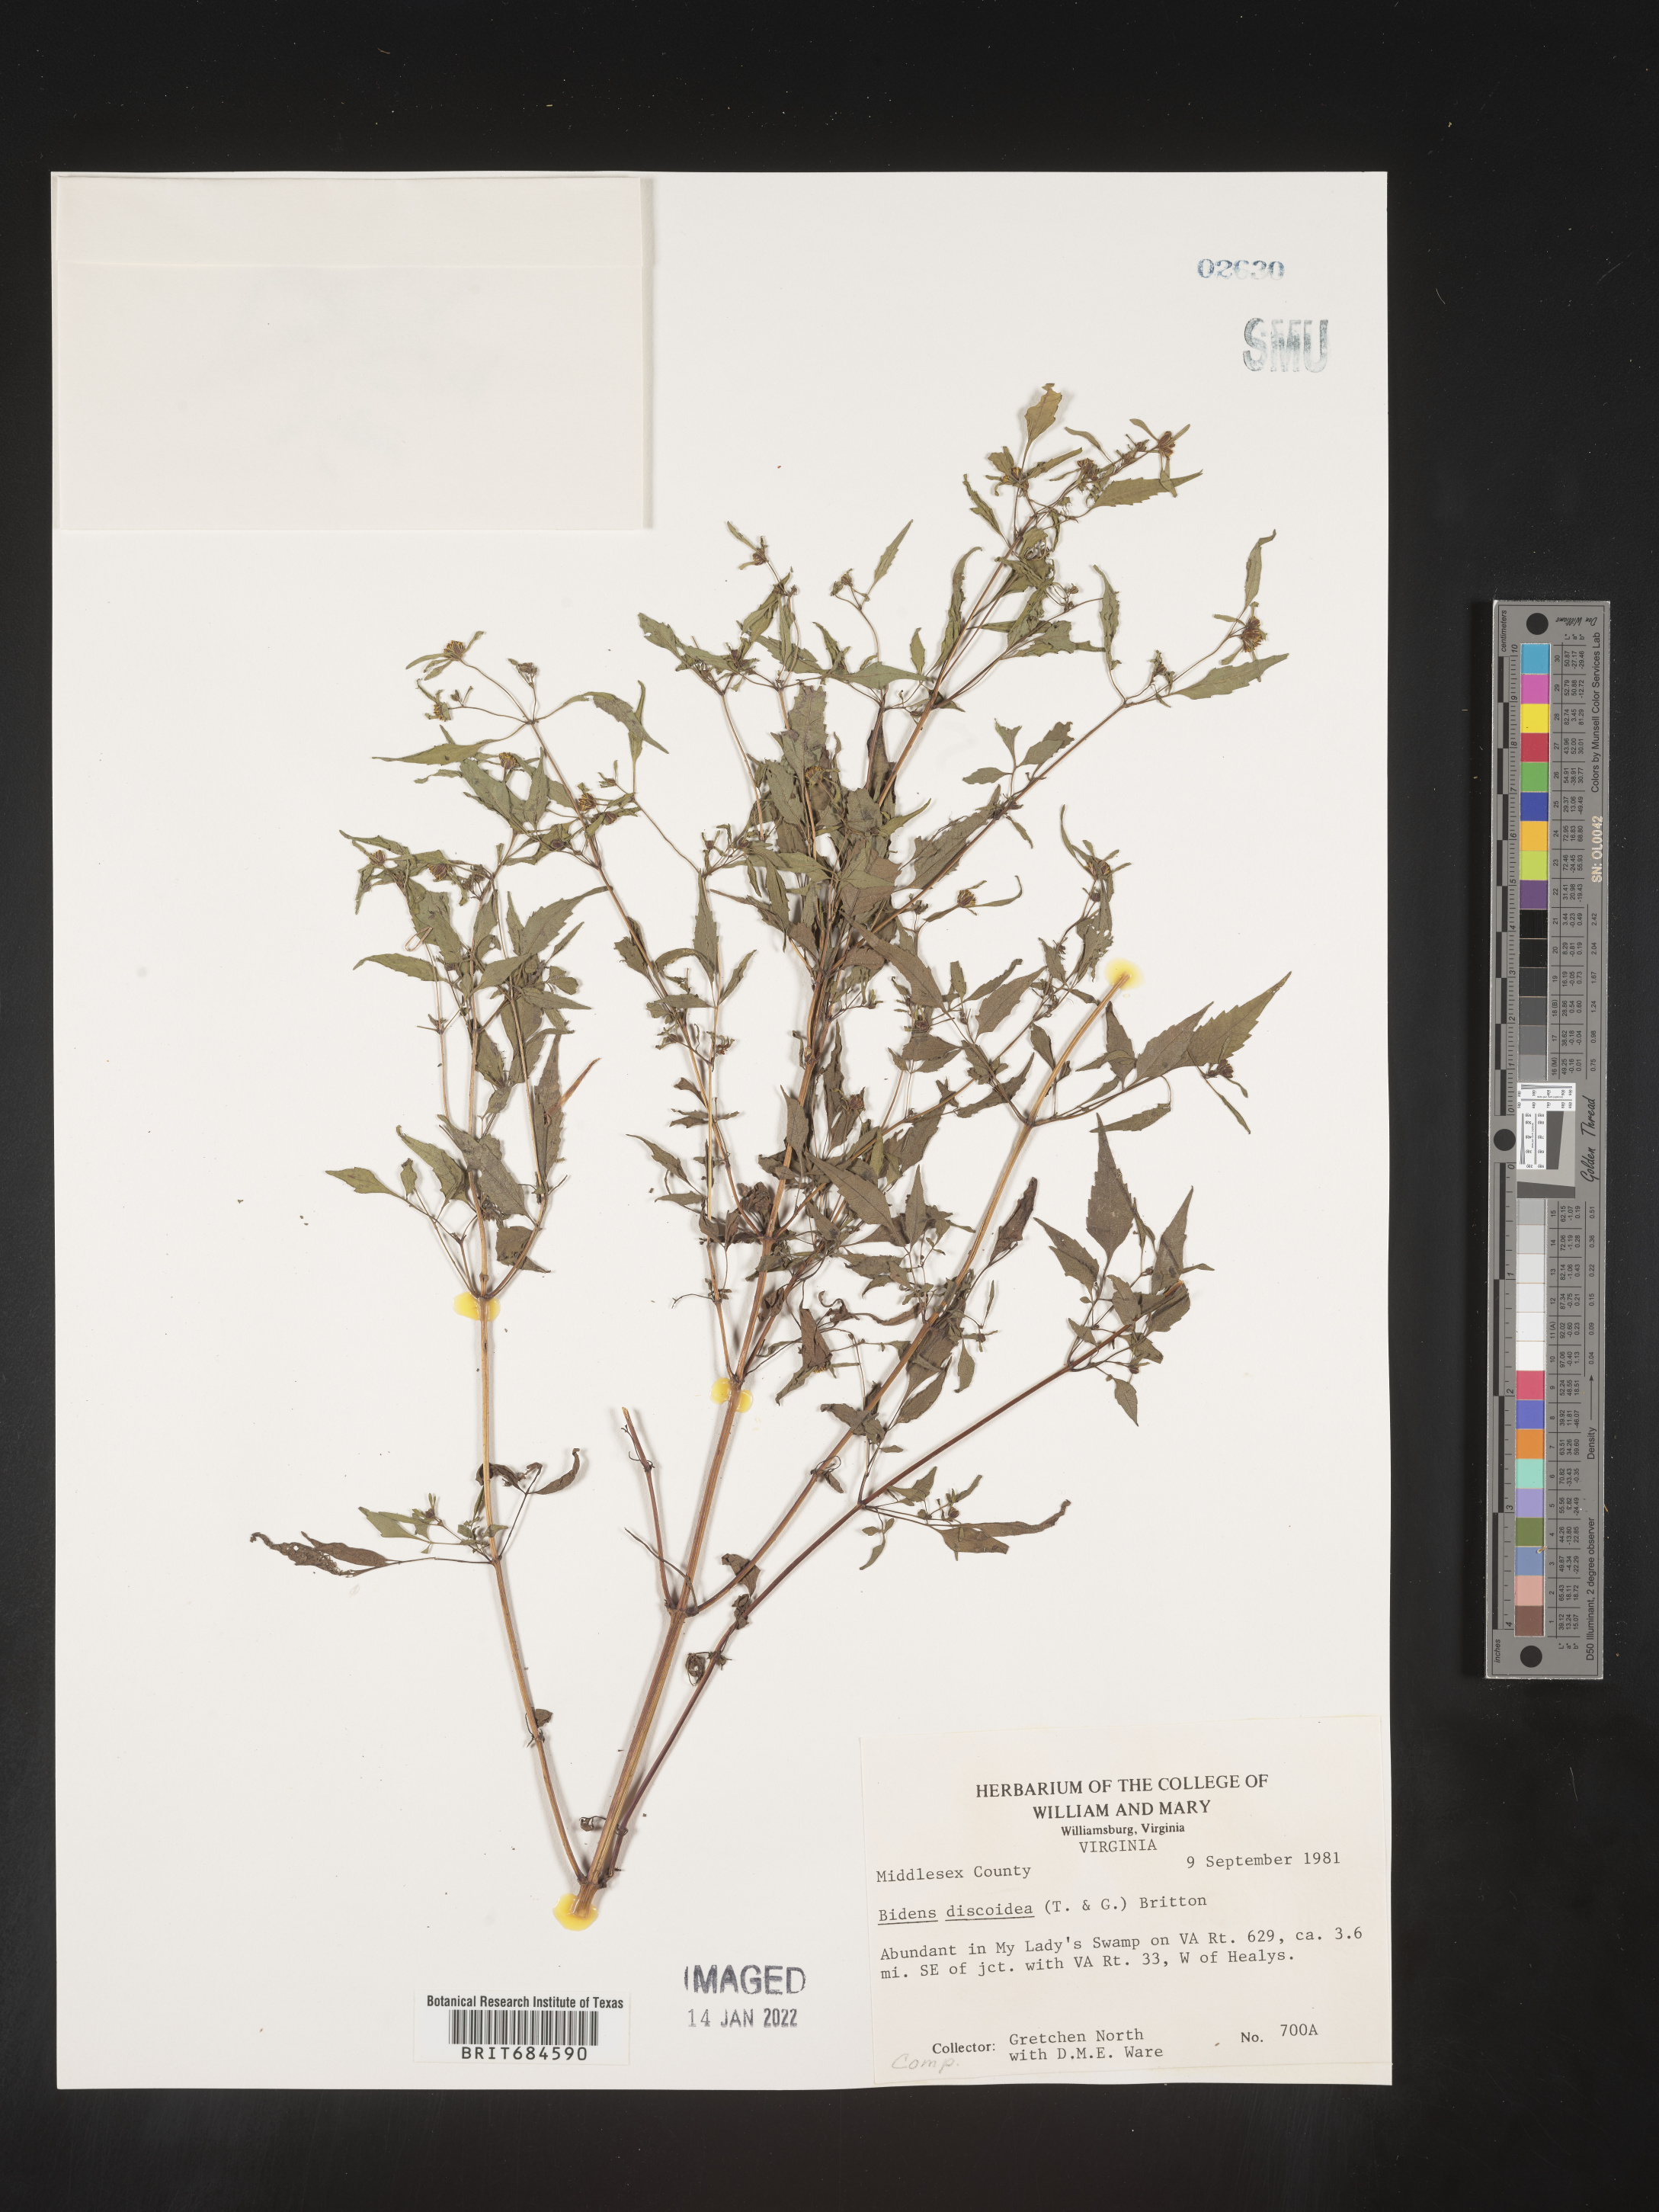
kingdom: Plantae
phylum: Tracheophyta
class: Magnoliopsida
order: Asterales
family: Asteraceae
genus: Bidens
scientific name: Bidens discoidea
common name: Discoide beggarticks
